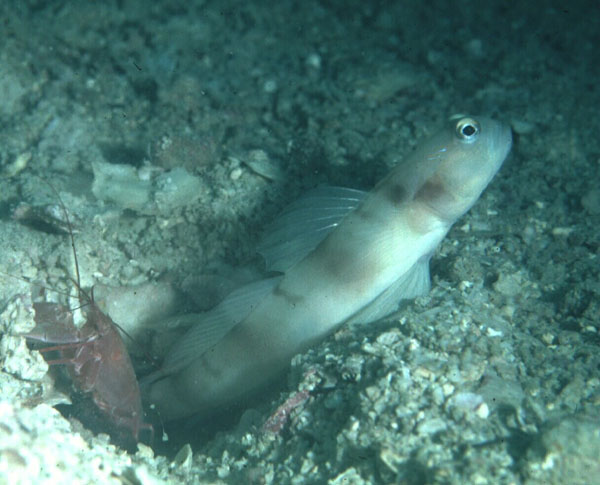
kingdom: Animalia
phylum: Chordata
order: Perciformes
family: Gobiidae
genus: Amblyeleotris
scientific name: Amblyeleotris downingi
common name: Downing's shrimpgoby
